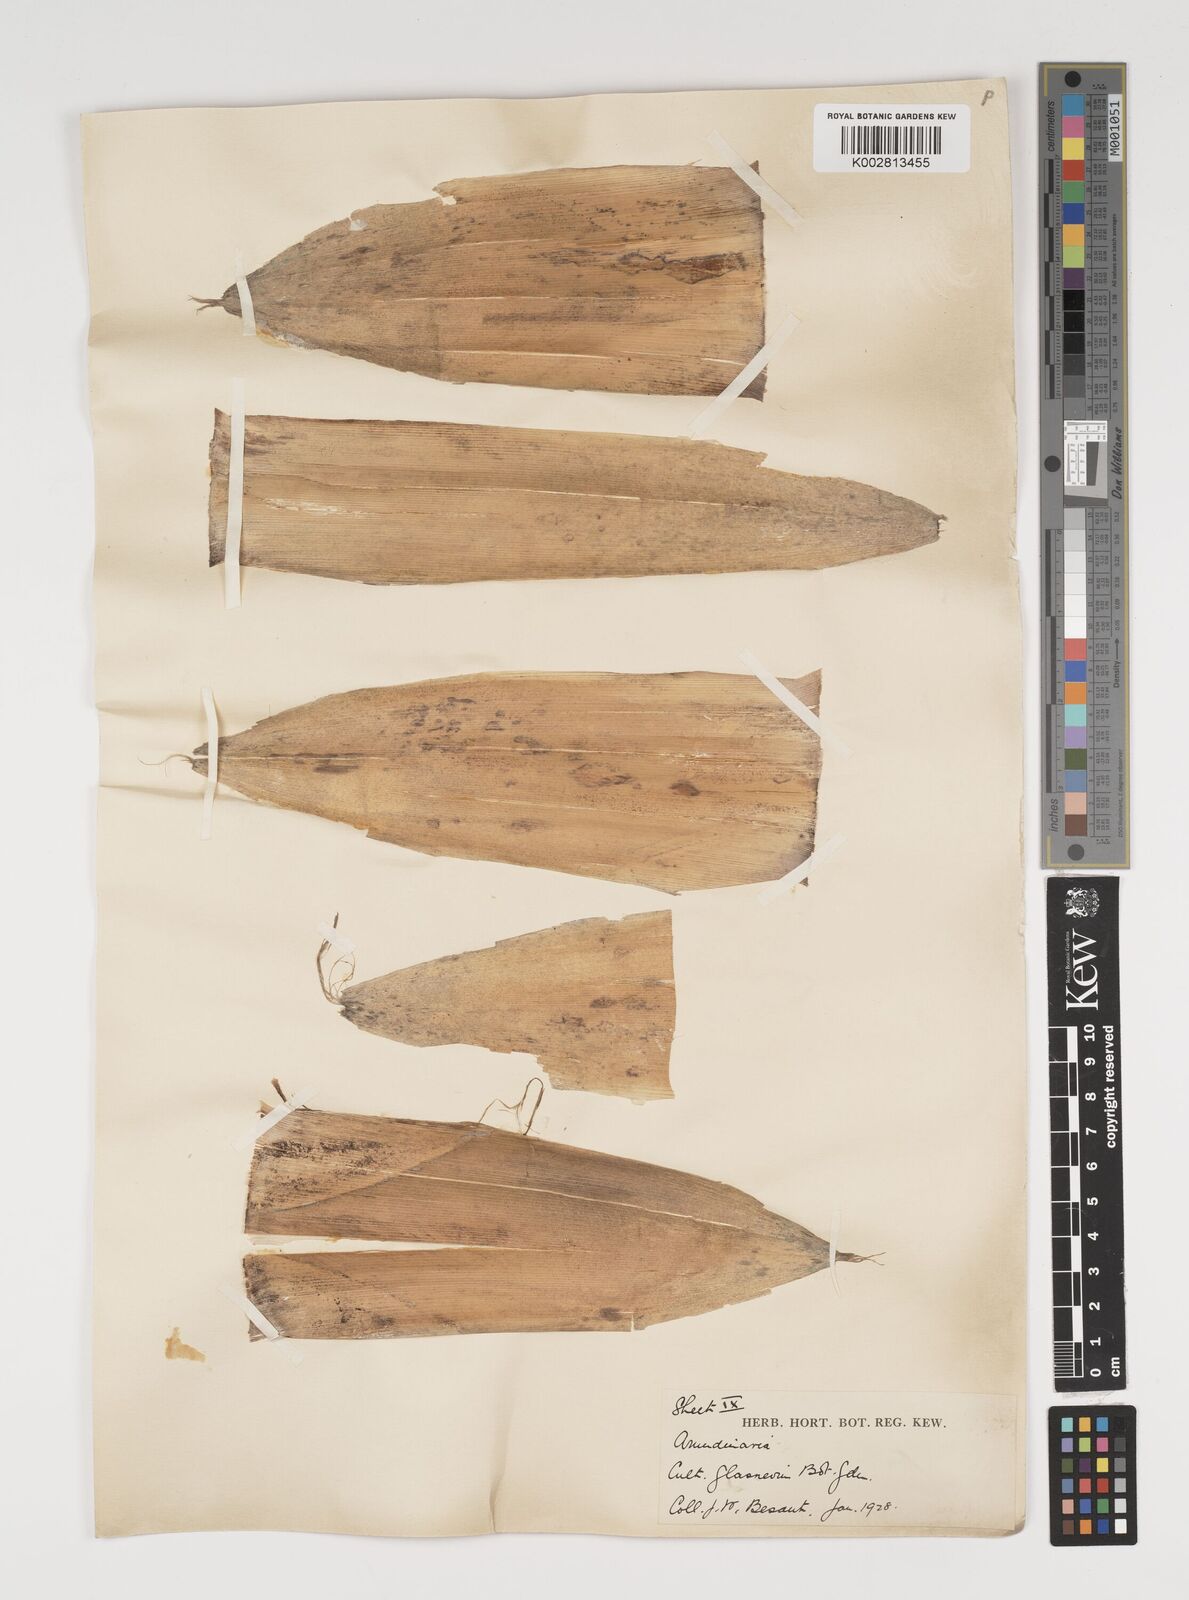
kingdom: Plantae
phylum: Tracheophyta
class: Liliopsida
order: Poales
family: Poaceae
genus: Thamnocalamus
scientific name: Thamnocalamus spathiflorus
